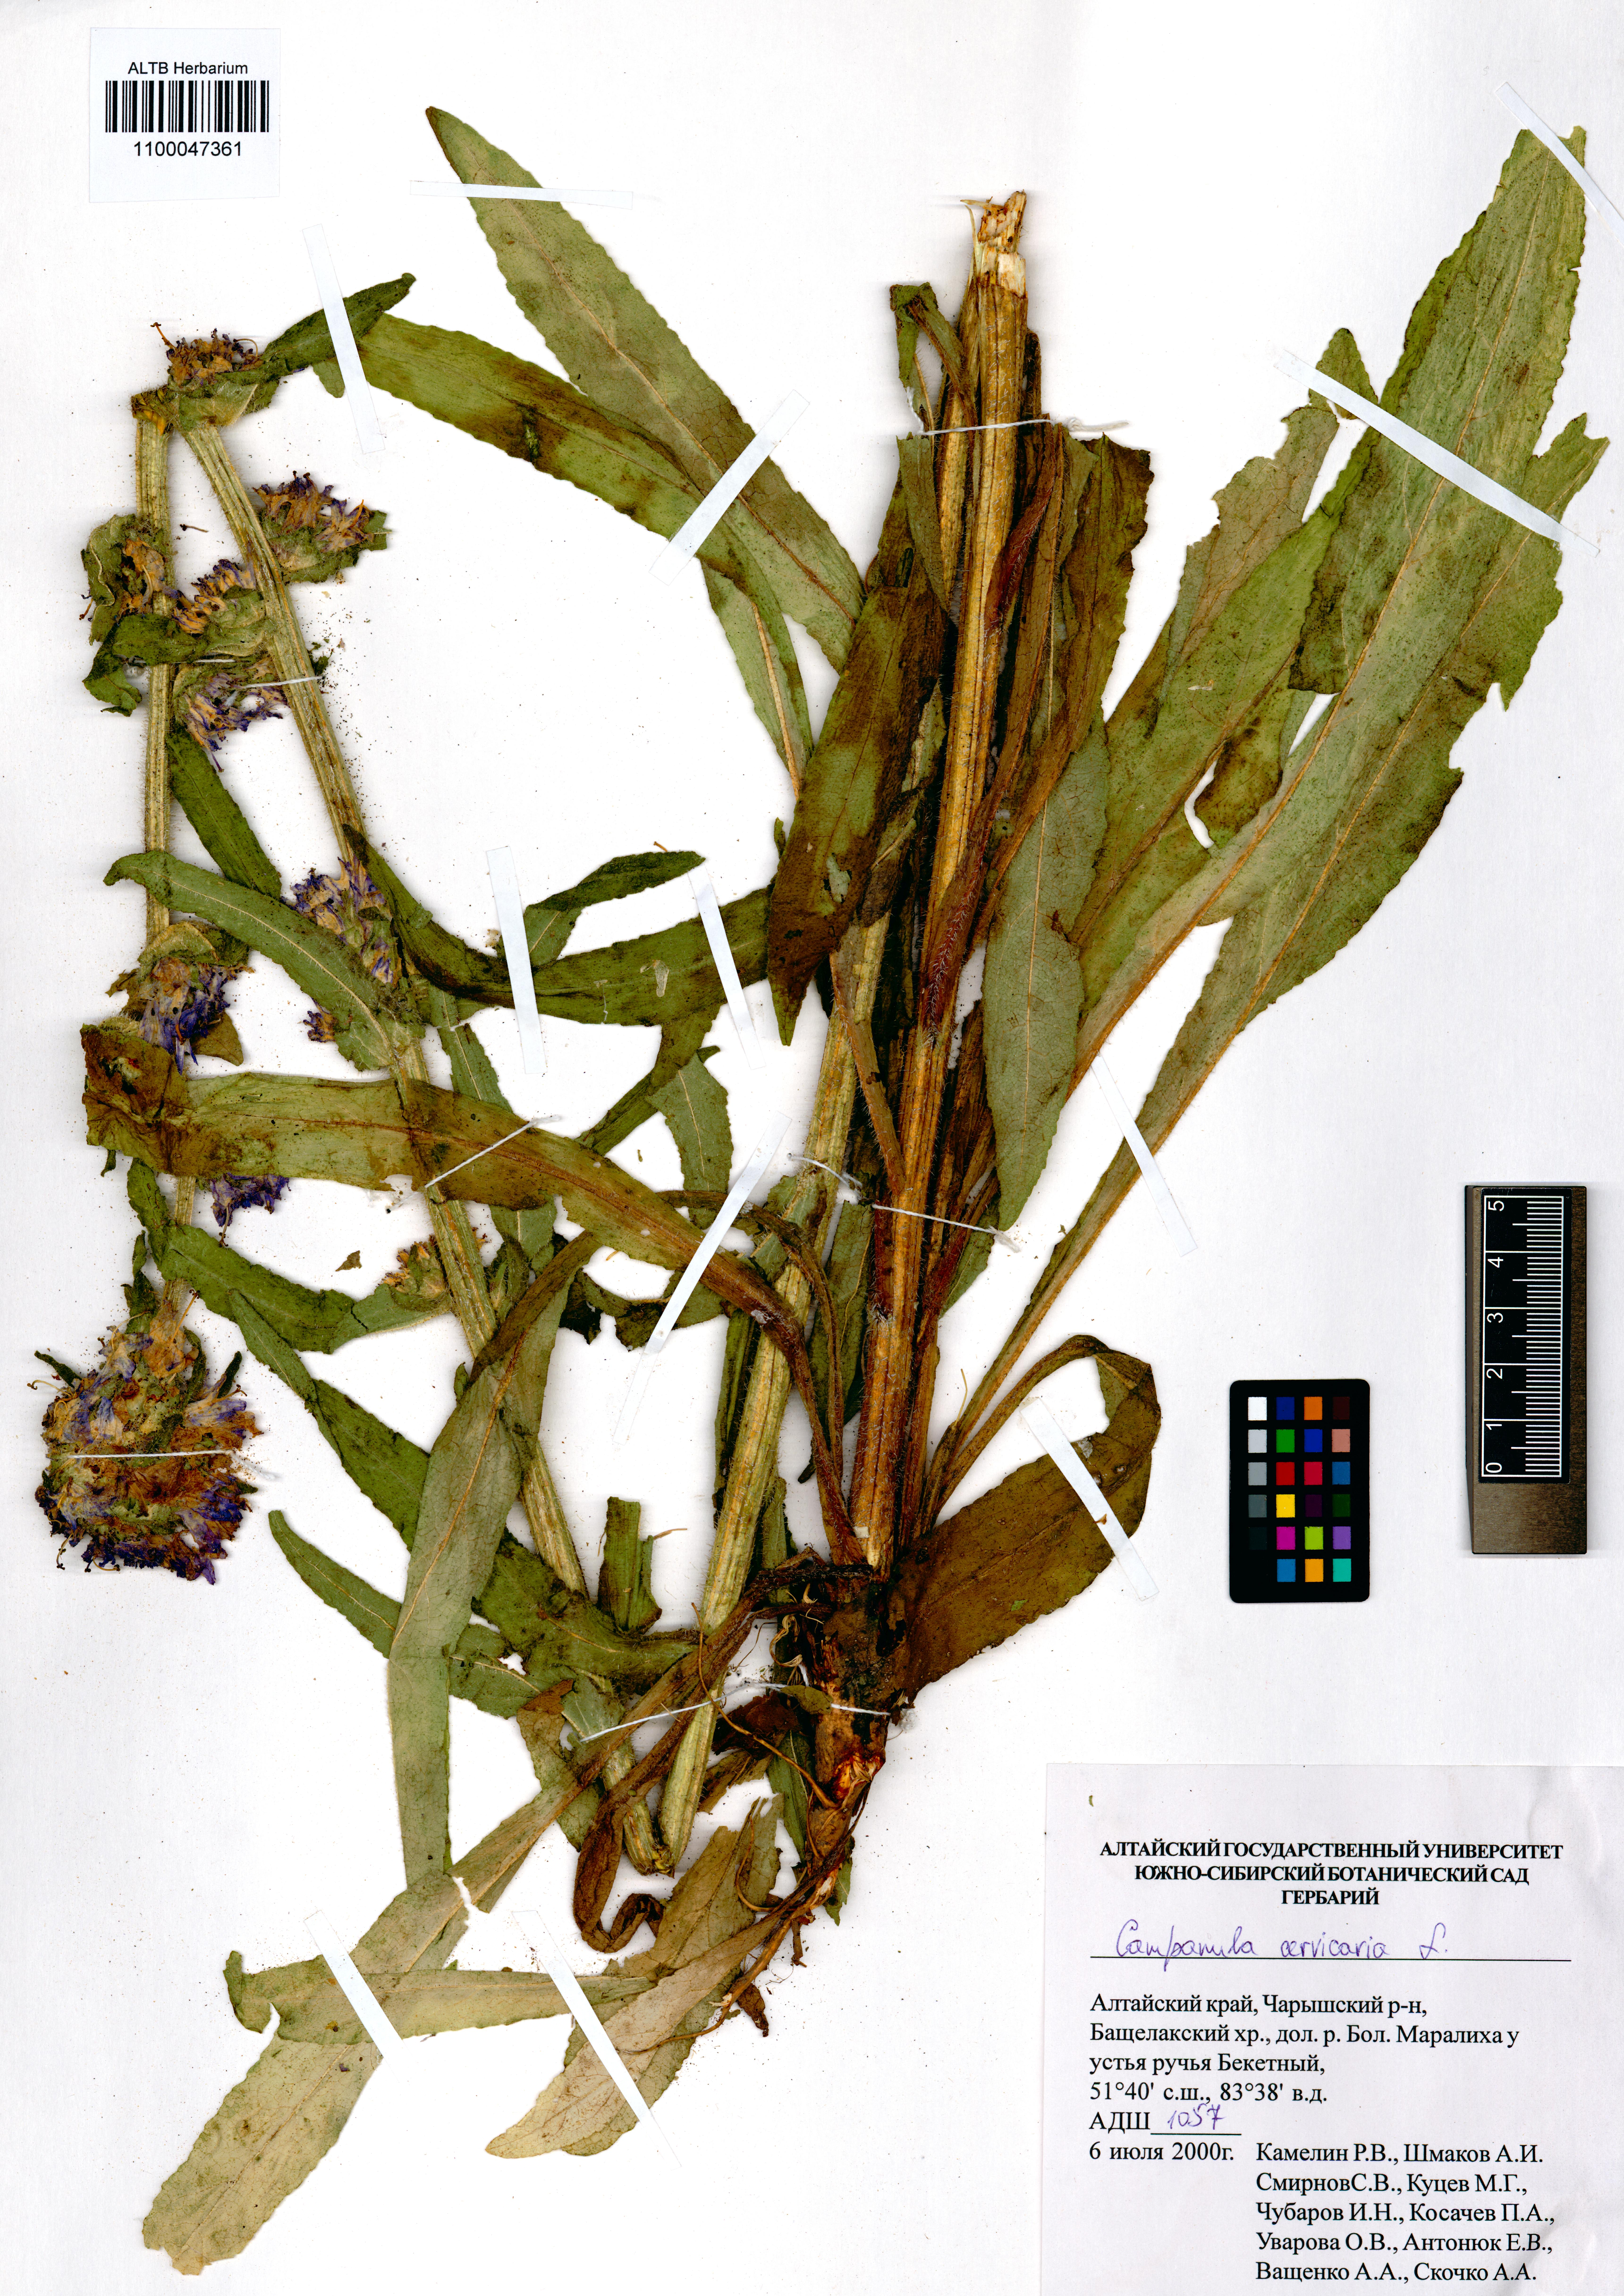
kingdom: Plantae
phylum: Tracheophyta
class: Magnoliopsida
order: Asterales
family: Campanulaceae
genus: Campanula
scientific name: Campanula cervicaria
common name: Bristly bellflower
